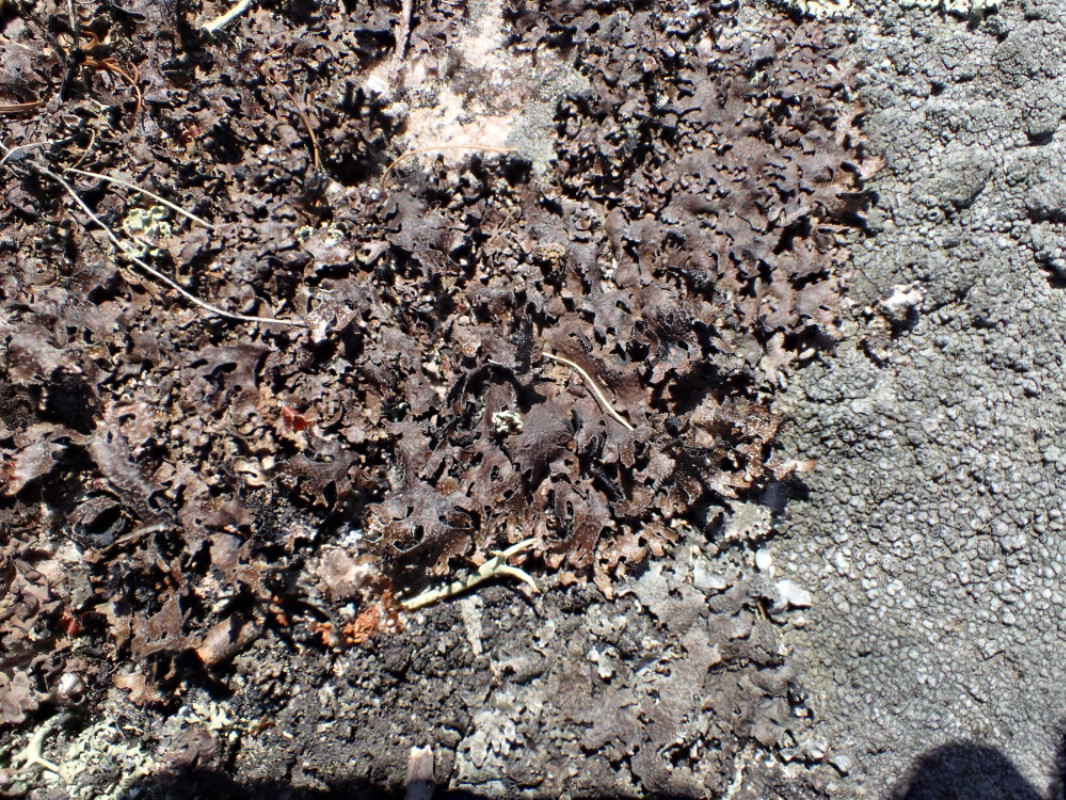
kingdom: Fungi
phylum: Ascomycota
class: Lecanoromycetes
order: Lecanorales
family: Parmeliaceae
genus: Parmelia
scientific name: Parmelia omphalodes
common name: bronze-skållav
